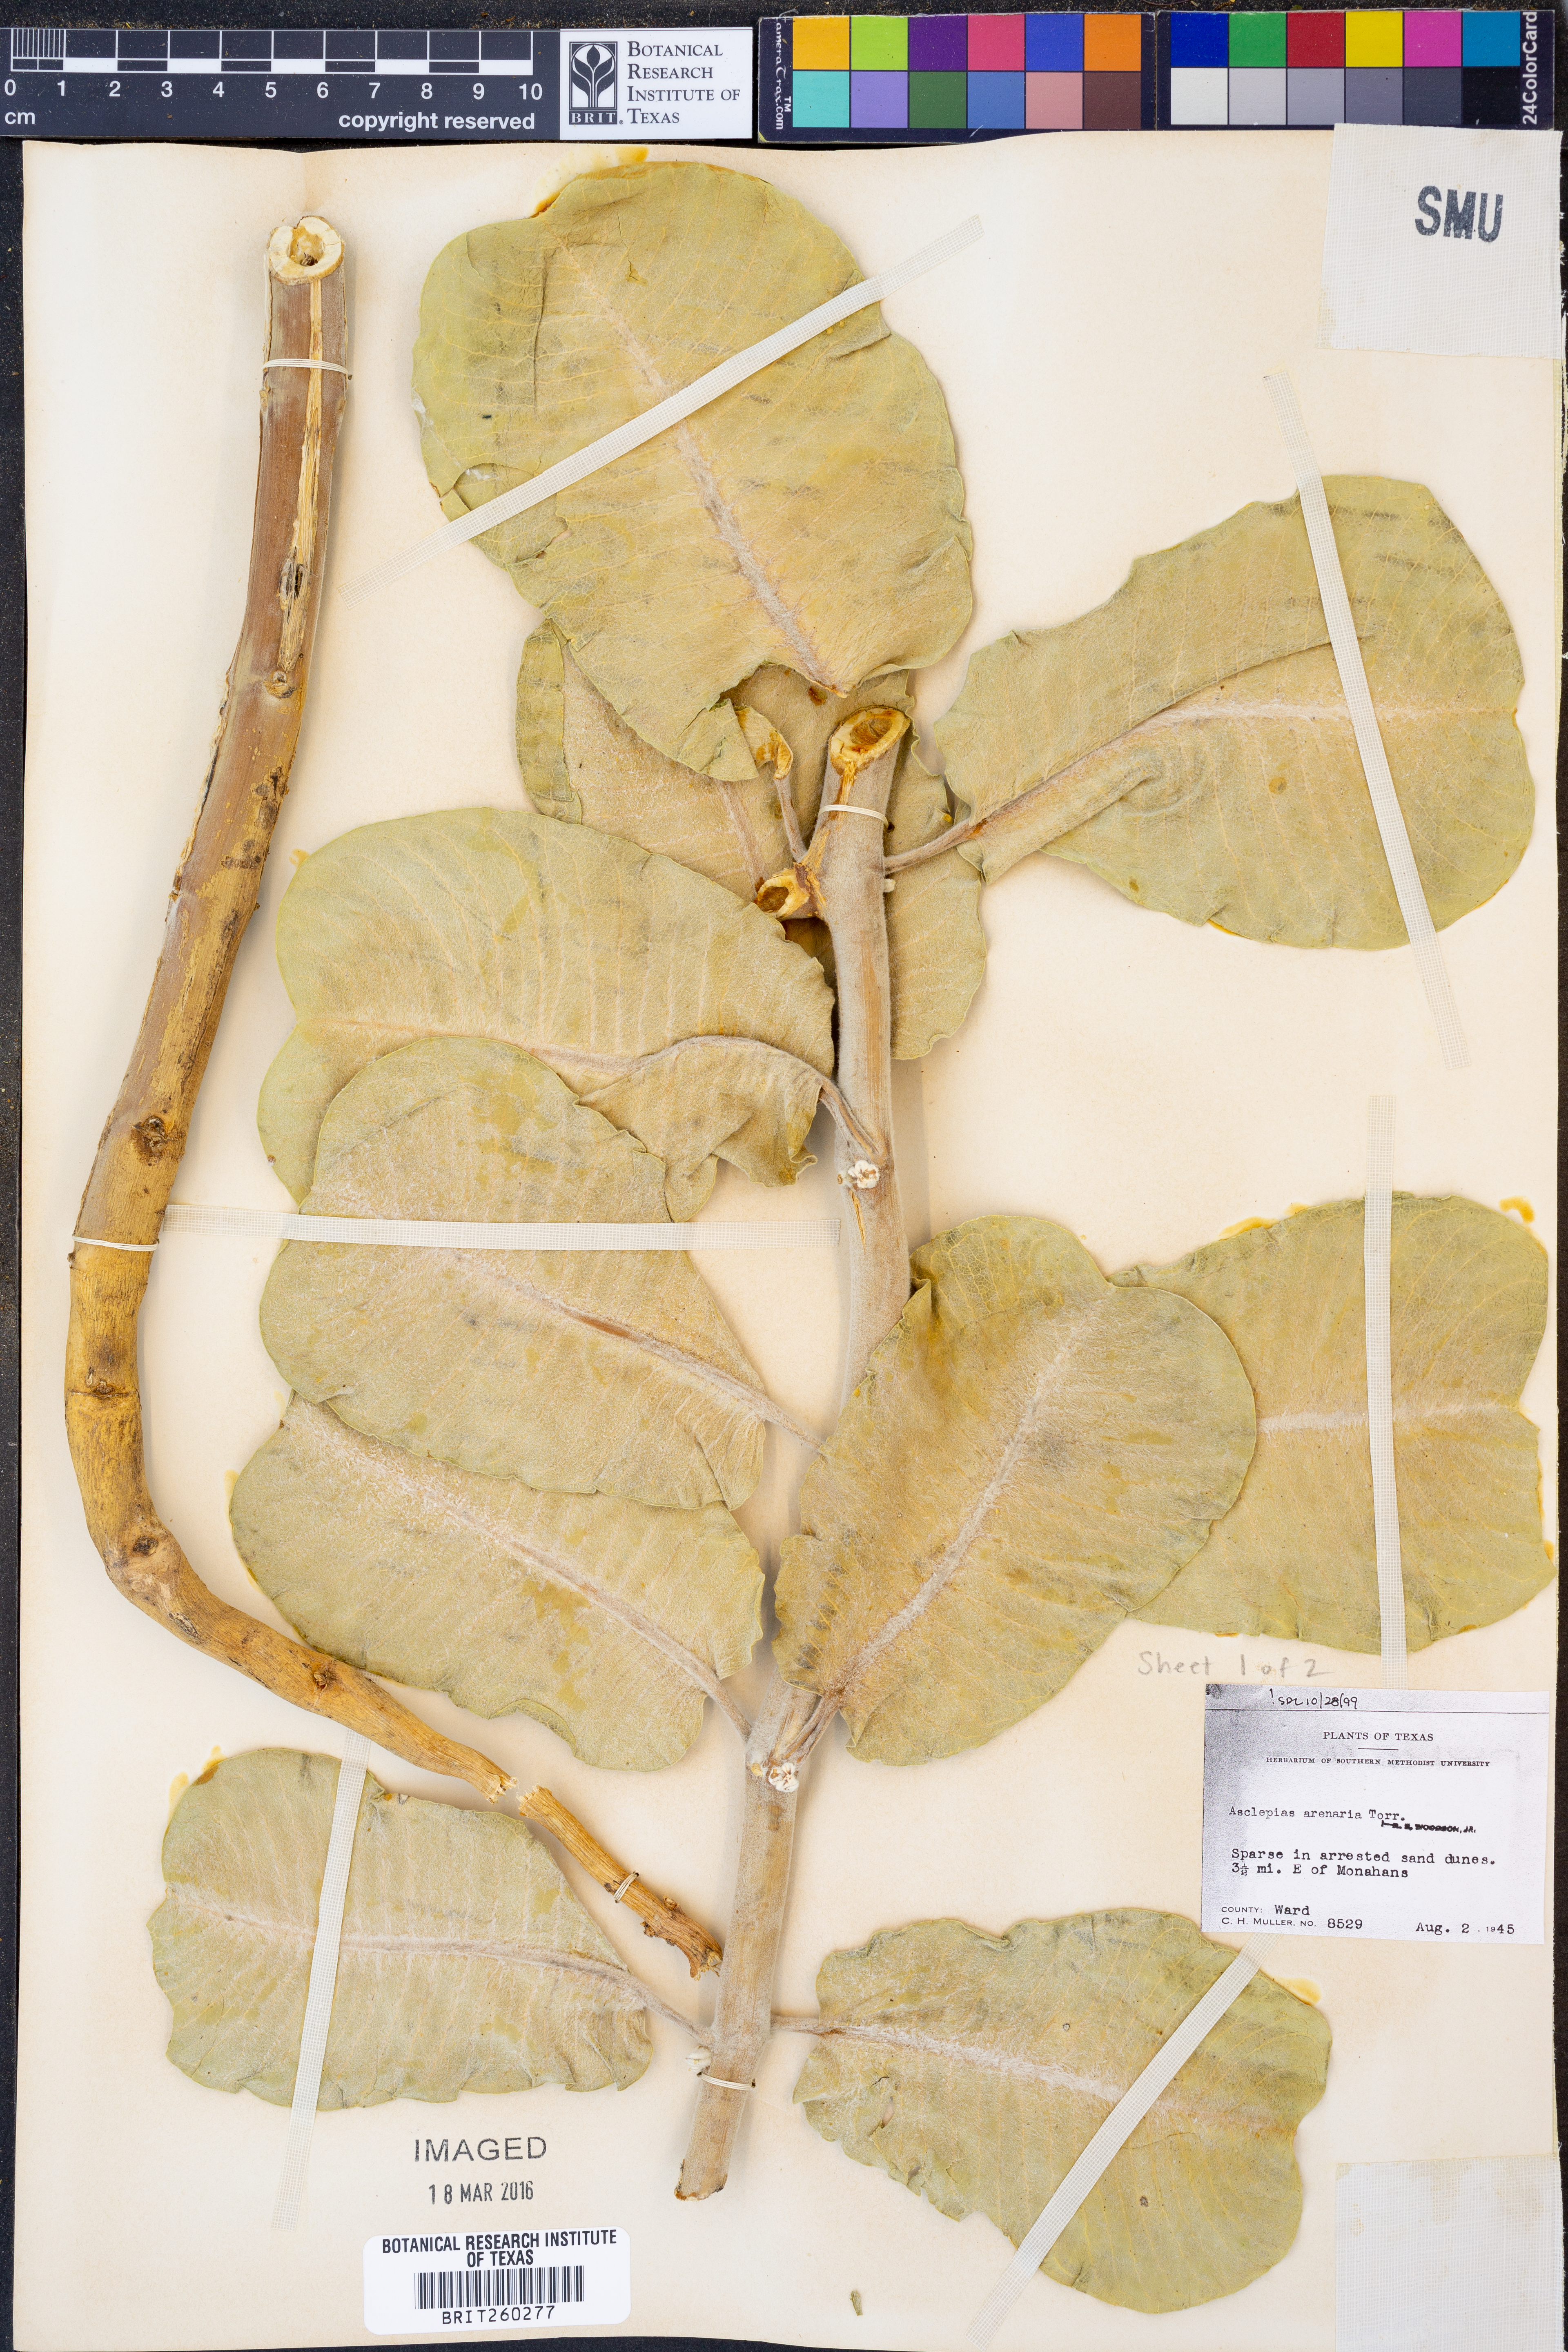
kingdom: Plantae
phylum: Tracheophyta
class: Magnoliopsida
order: Gentianales
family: Apocynaceae
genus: Asclepias
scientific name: Asclepias arenaria
